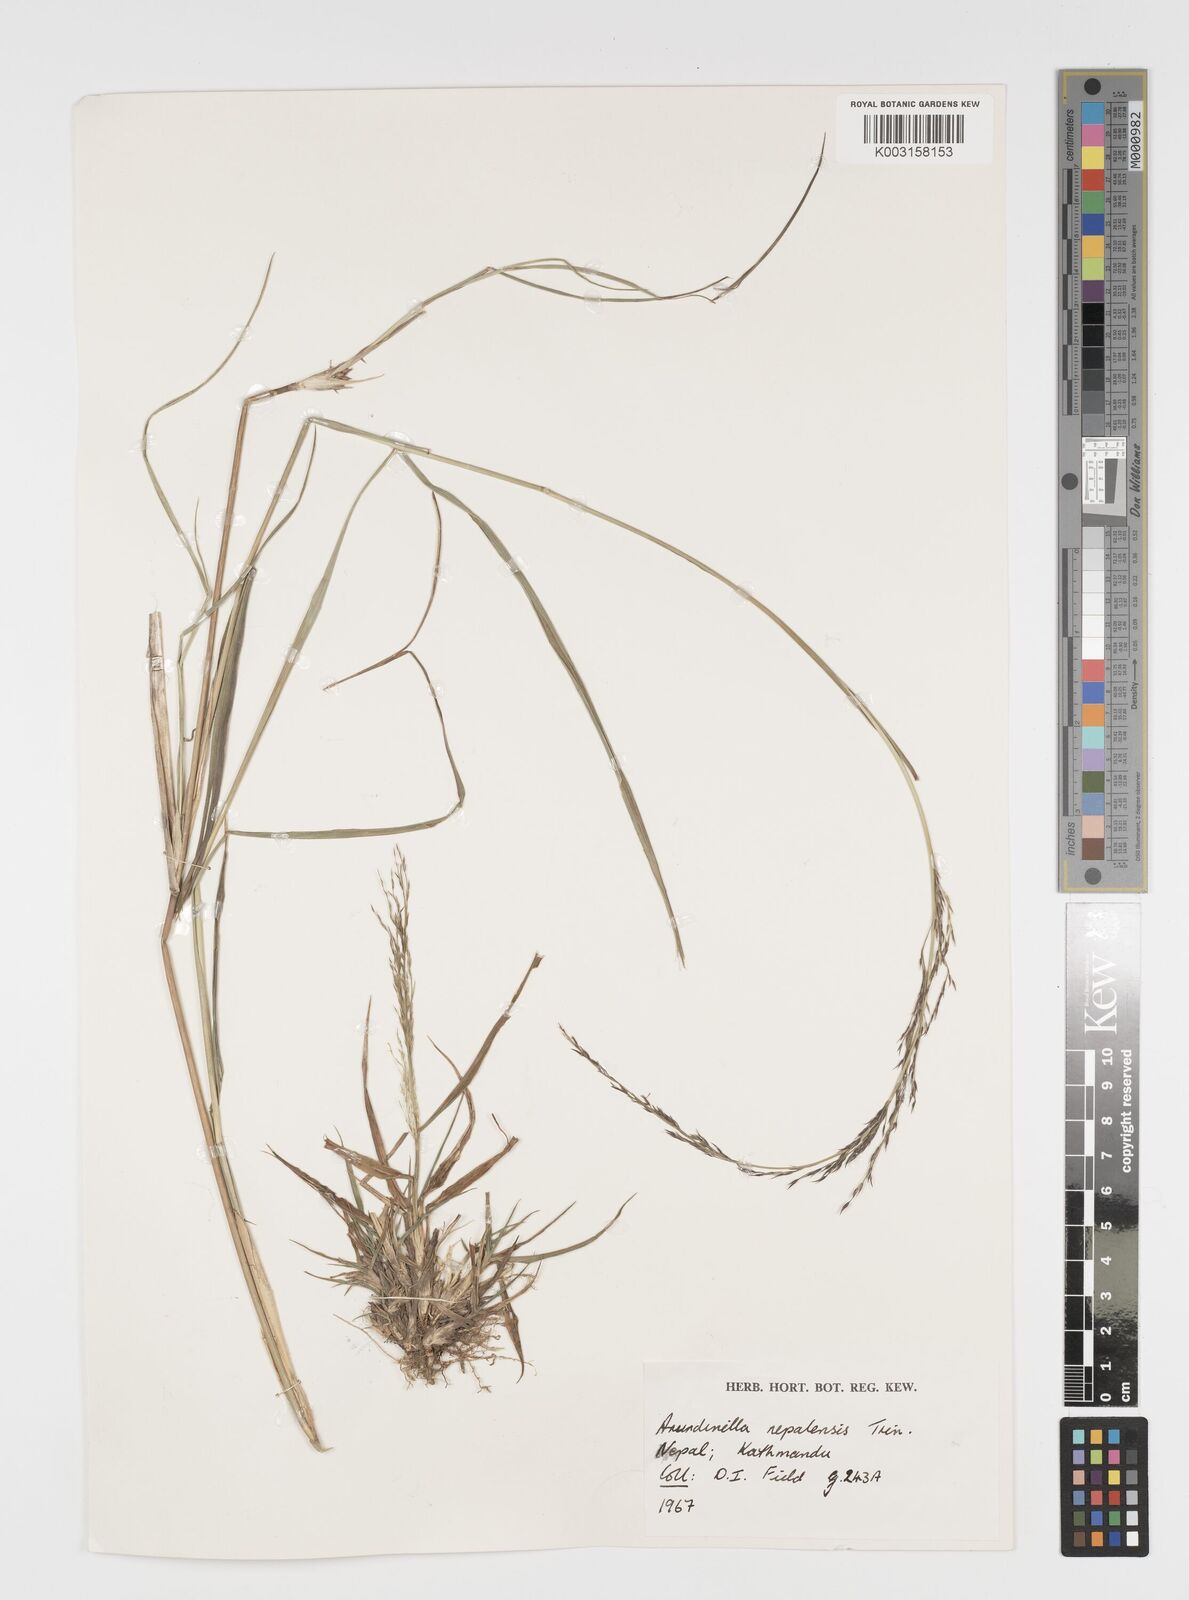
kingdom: Plantae
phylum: Tracheophyta
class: Liliopsida
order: Poales
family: Poaceae
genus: Arundinella
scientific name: Arundinella nepalensis
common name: Reed grass
